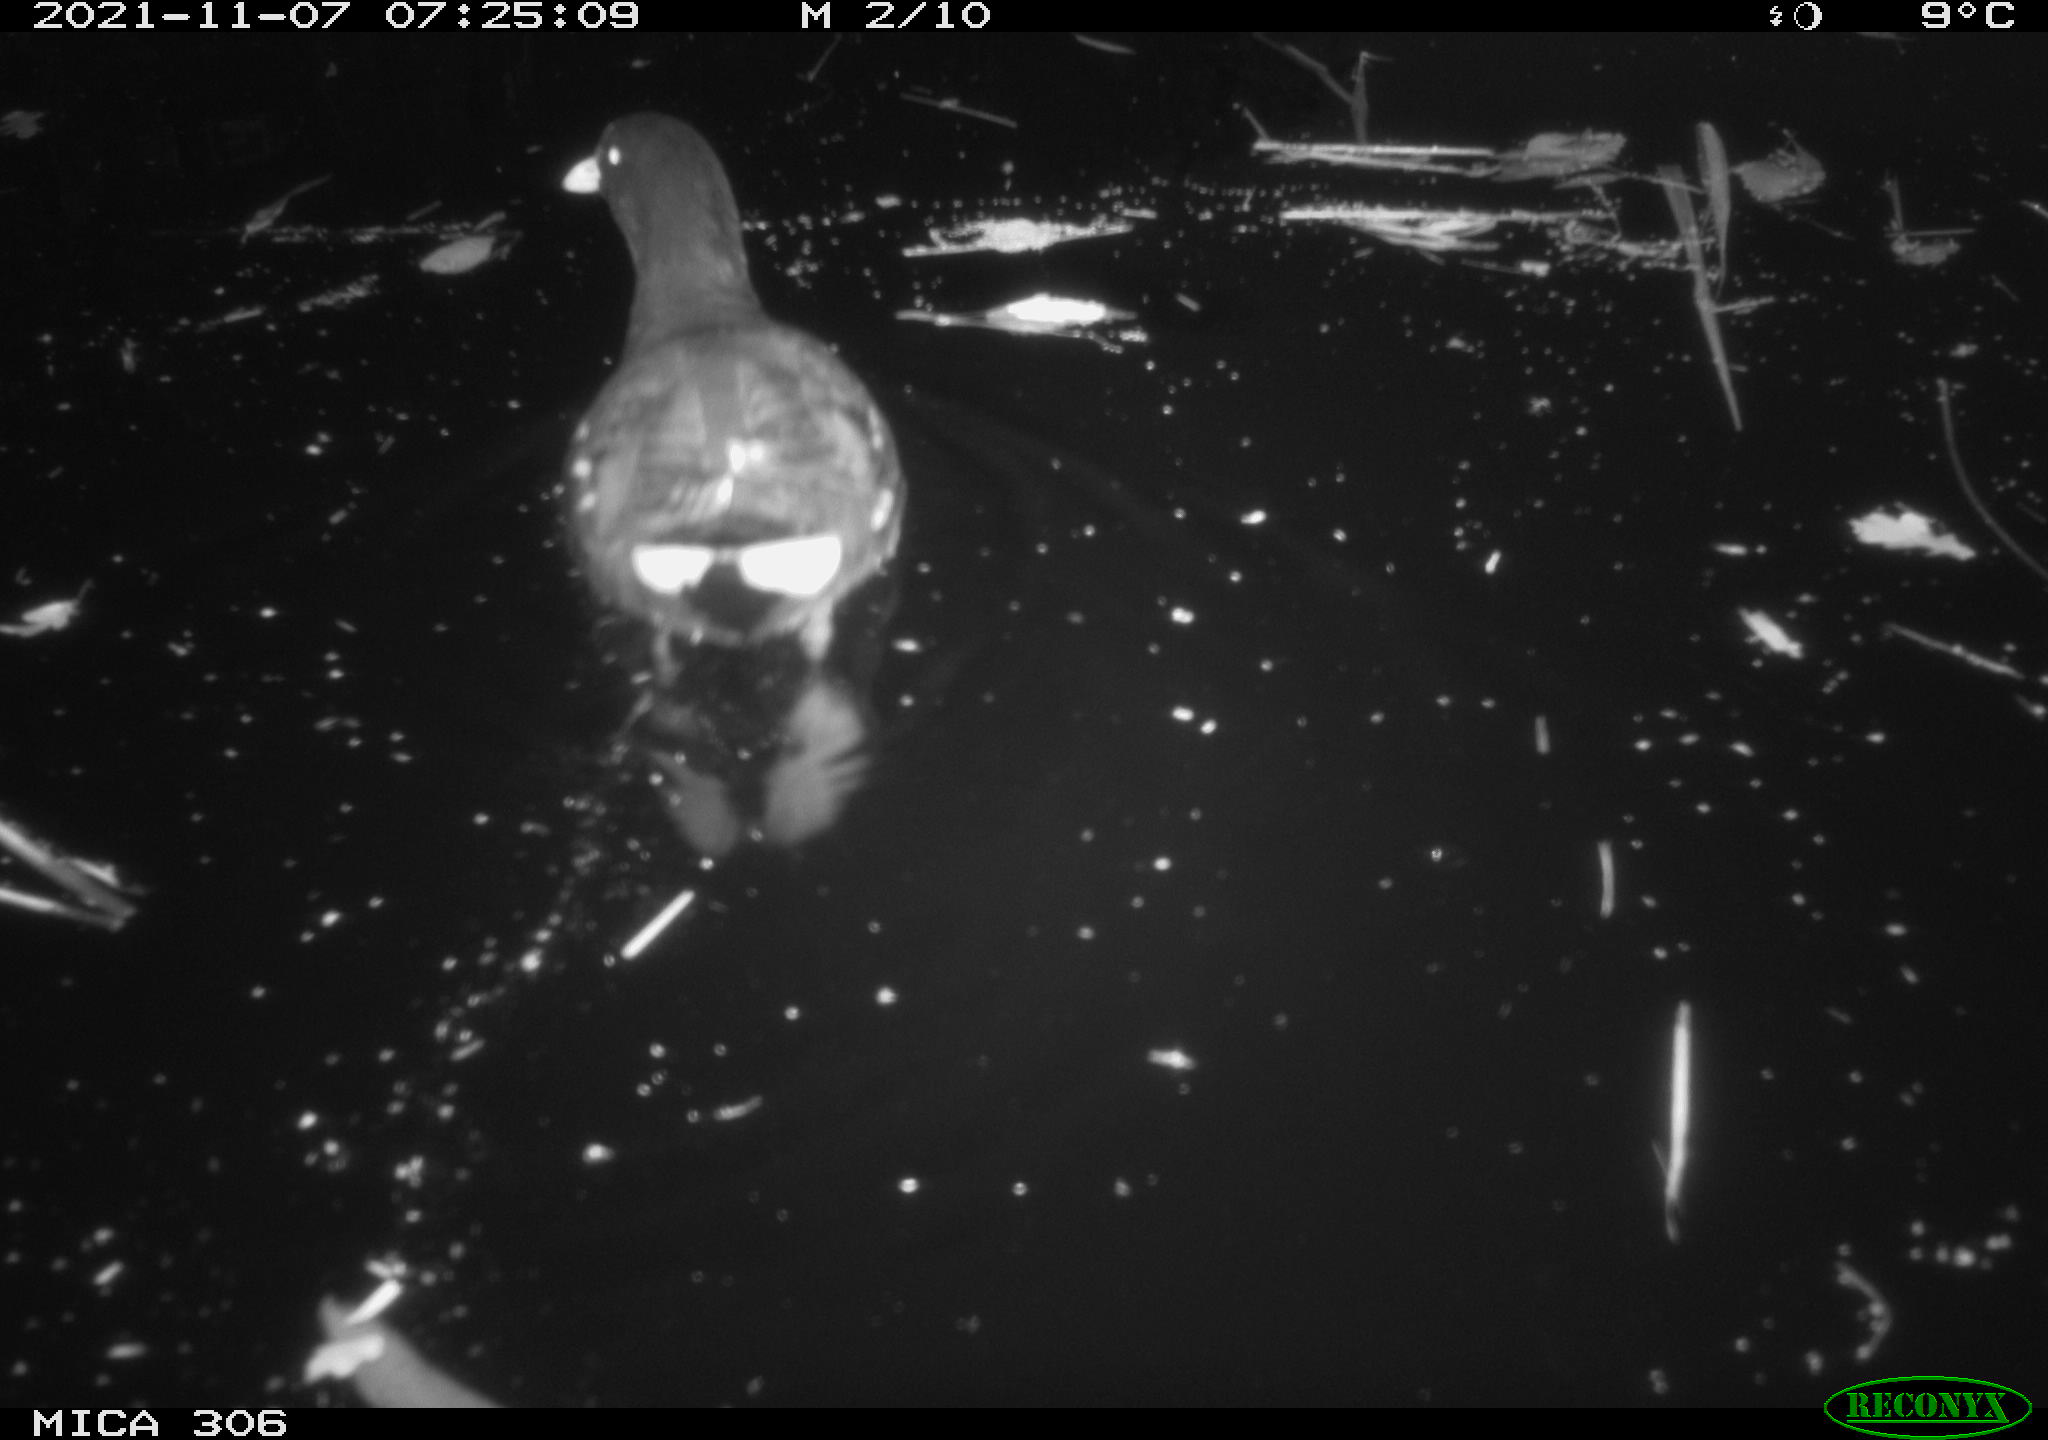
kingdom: Animalia
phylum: Chordata
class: Aves
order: Gruiformes
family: Rallidae
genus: Gallinula
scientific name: Gallinula chloropus
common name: Common moorhen
